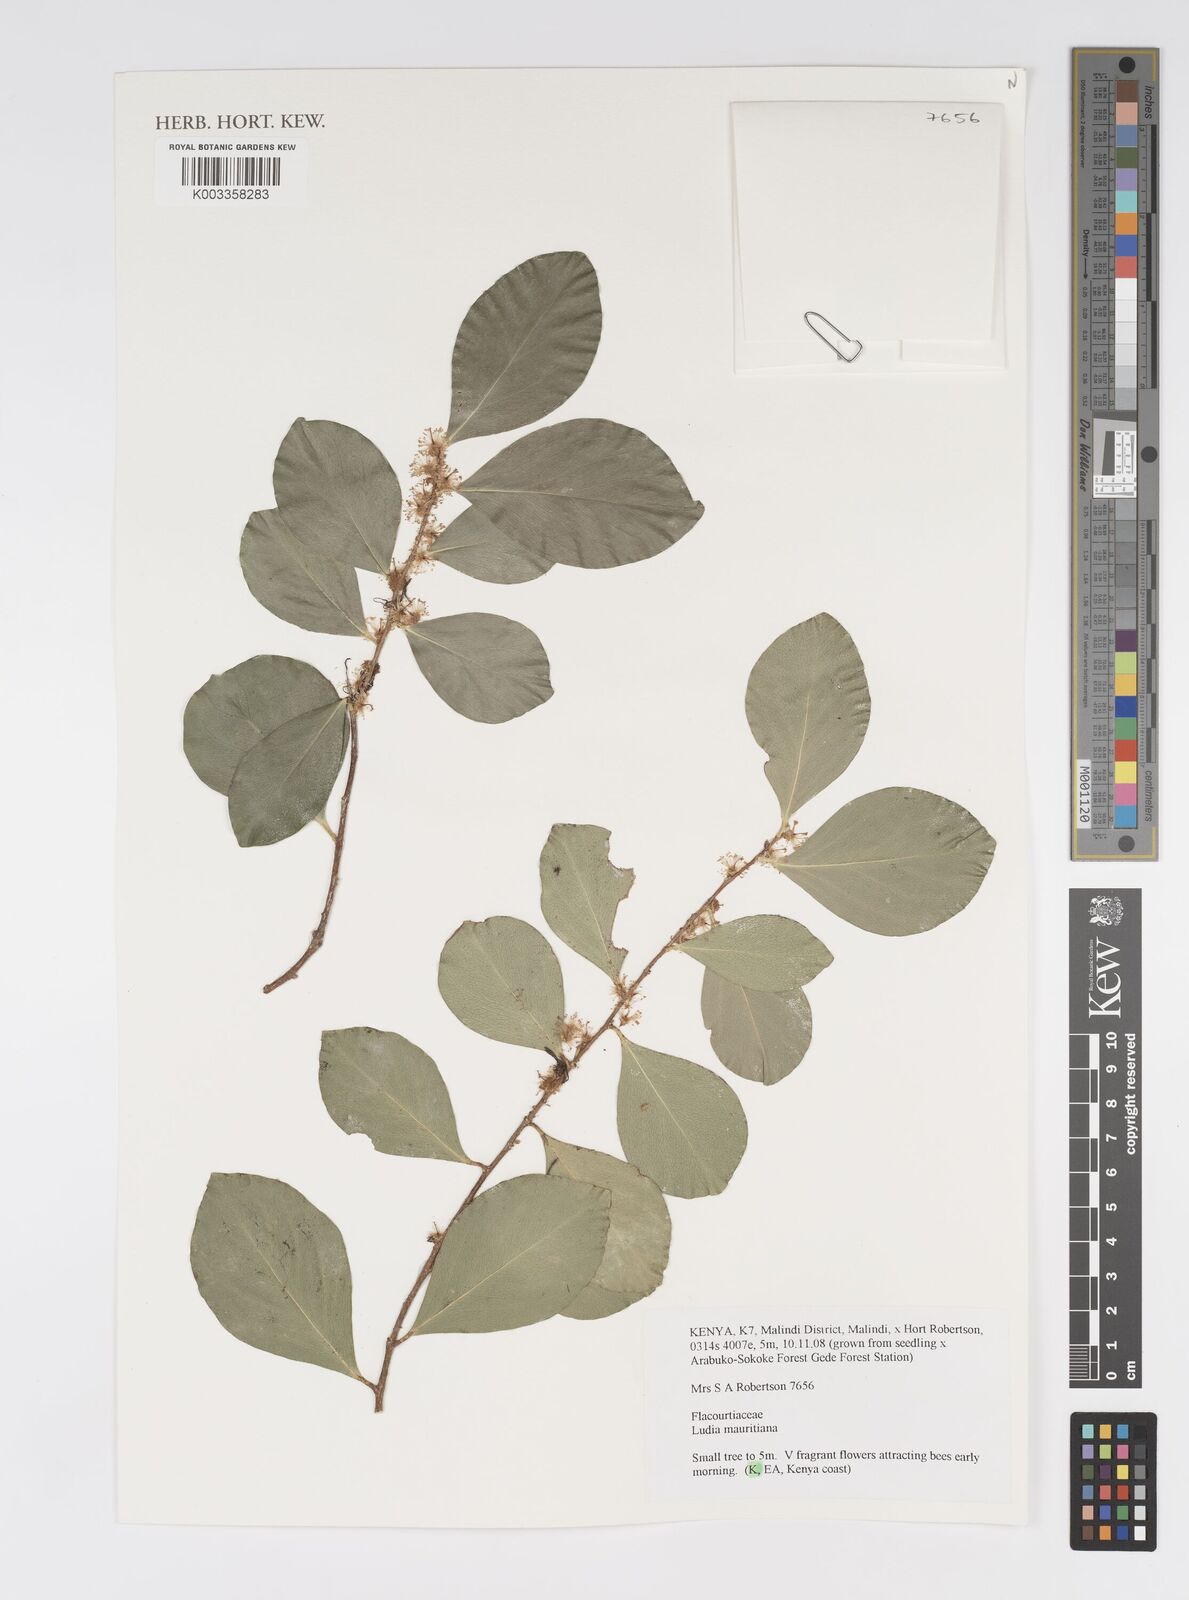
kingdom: Plantae
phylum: Tracheophyta
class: Magnoliopsida
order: Malpighiales
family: Salicaceae
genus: Ludia
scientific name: Ludia mauritiana
